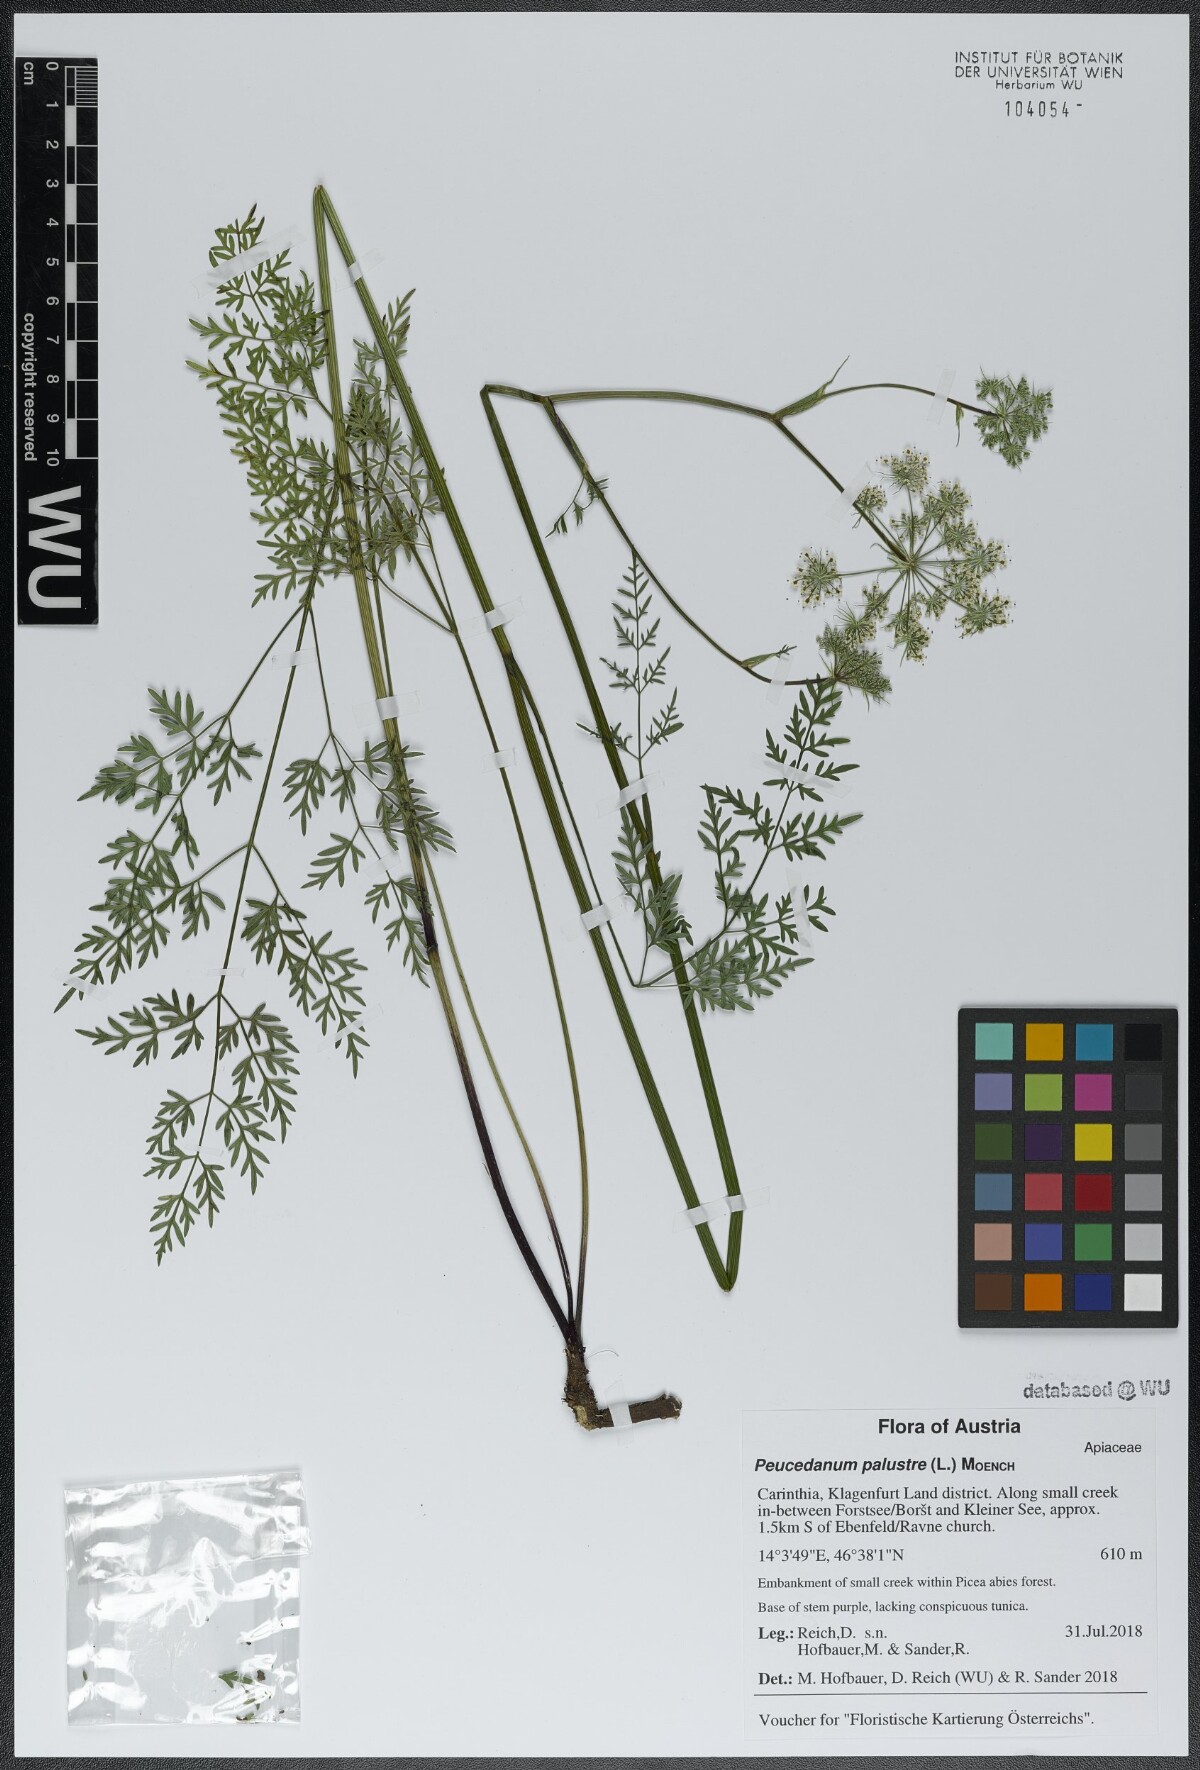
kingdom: Plantae
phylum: Tracheophyta
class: Magnoliopsida
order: Apiales
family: Apiaceae
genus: Thysselinum
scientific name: Thysselinum palustre
